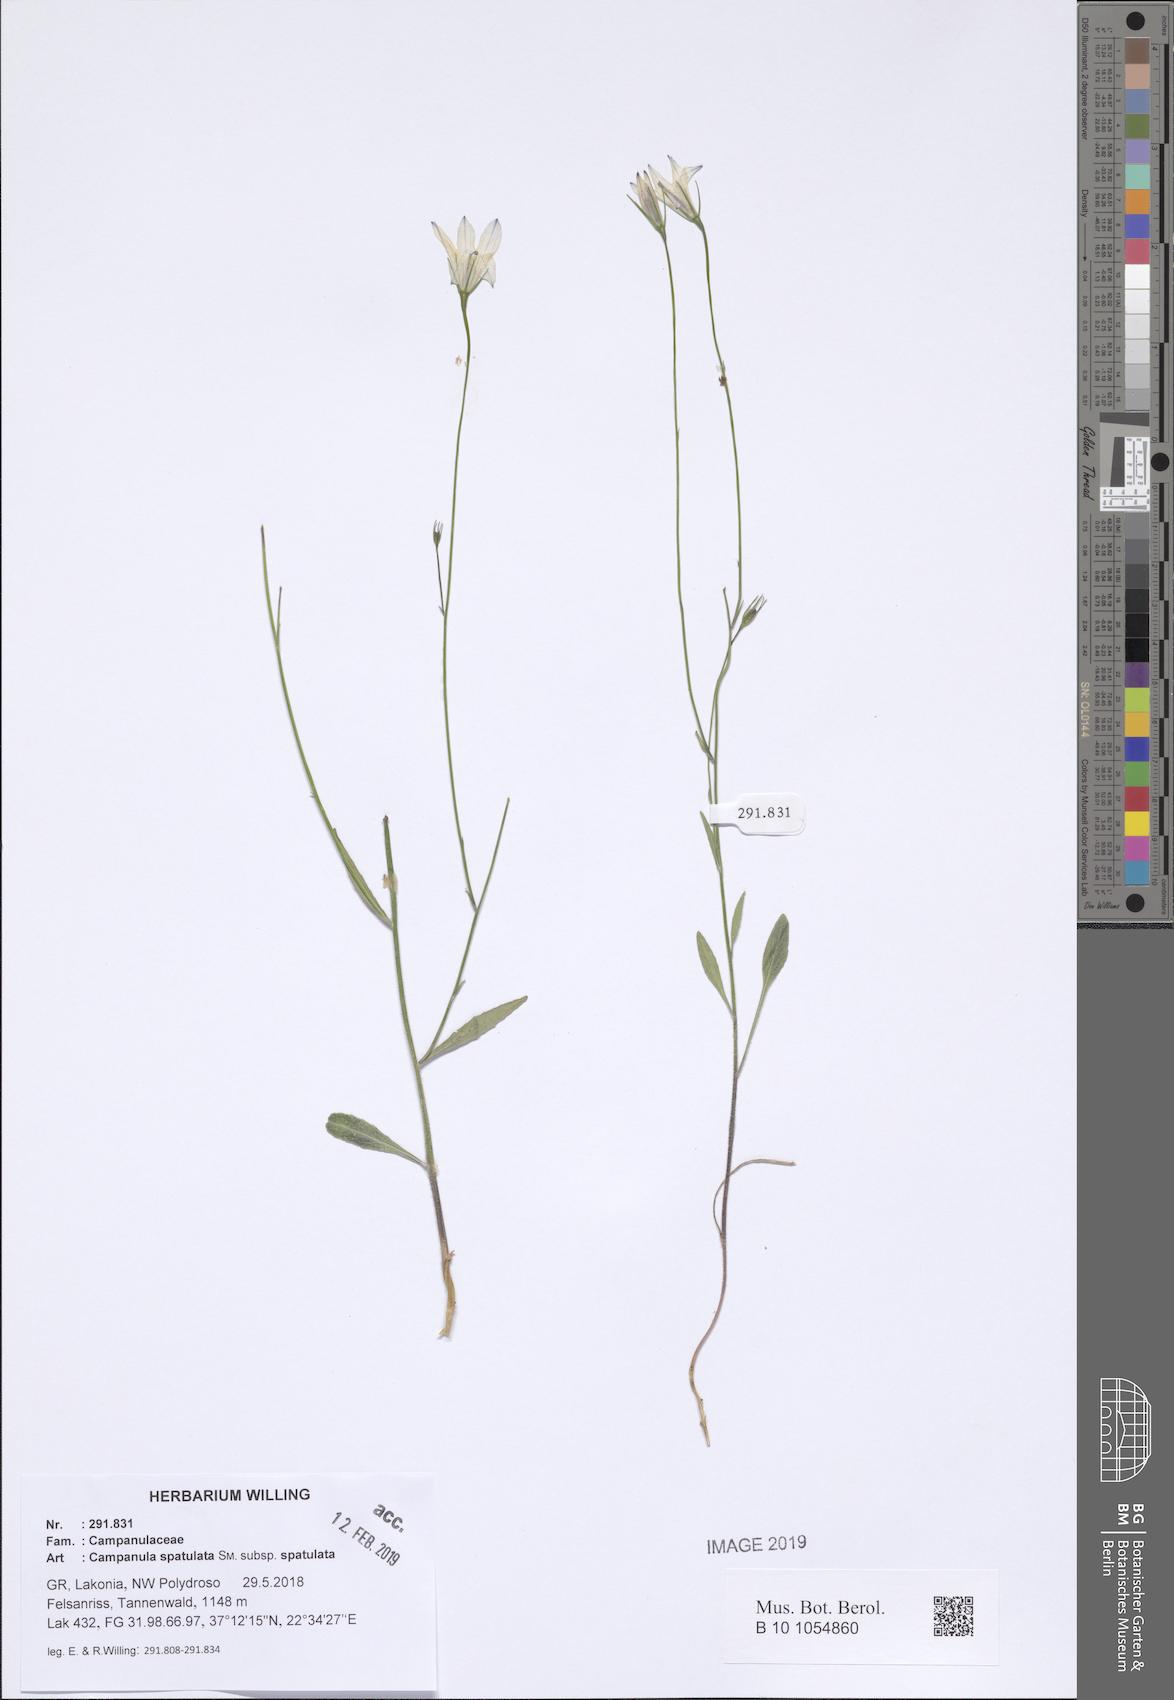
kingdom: Plantae
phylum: Tracheophyta
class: Magnoliopsida
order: Asterales
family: Campanulaceae
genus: Campanula
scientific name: Campanula spatulata
